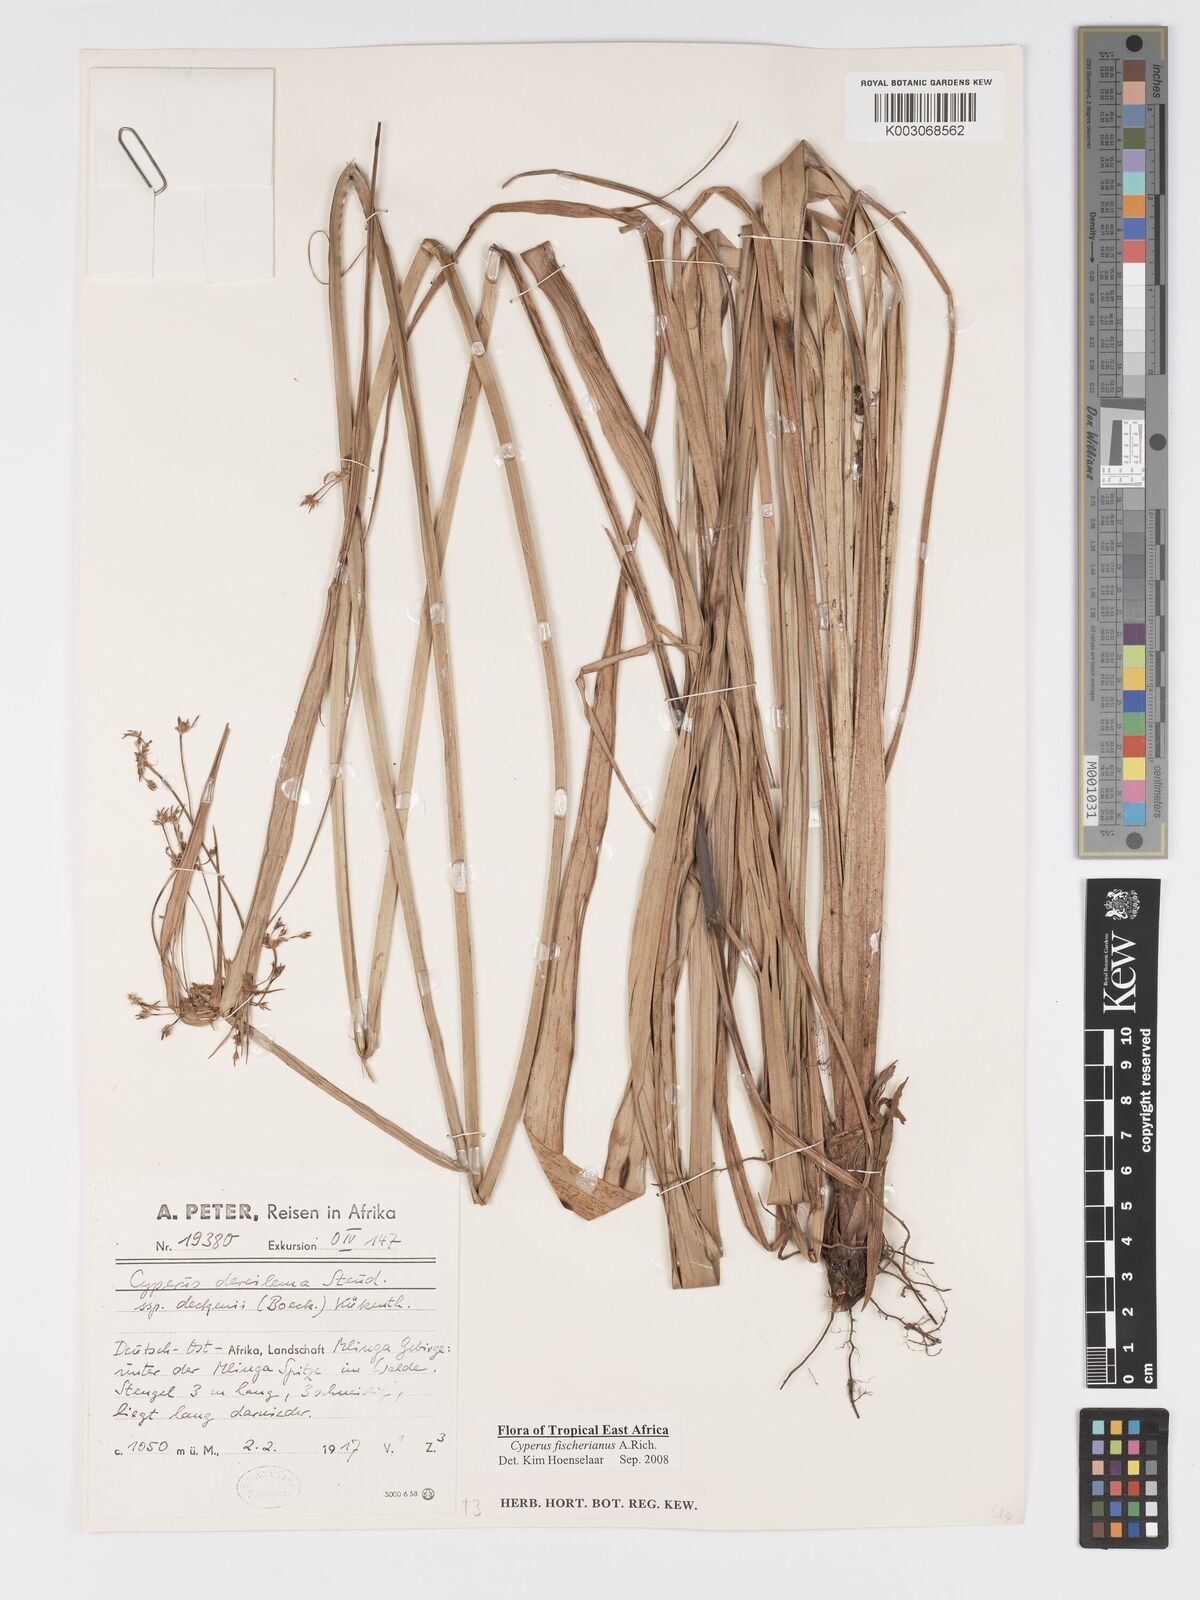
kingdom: Plantae
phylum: Tracheophyta
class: Liliopsida
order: Poales
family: Cyperaceae
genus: Cyperus
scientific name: Cyperus fischerianus
